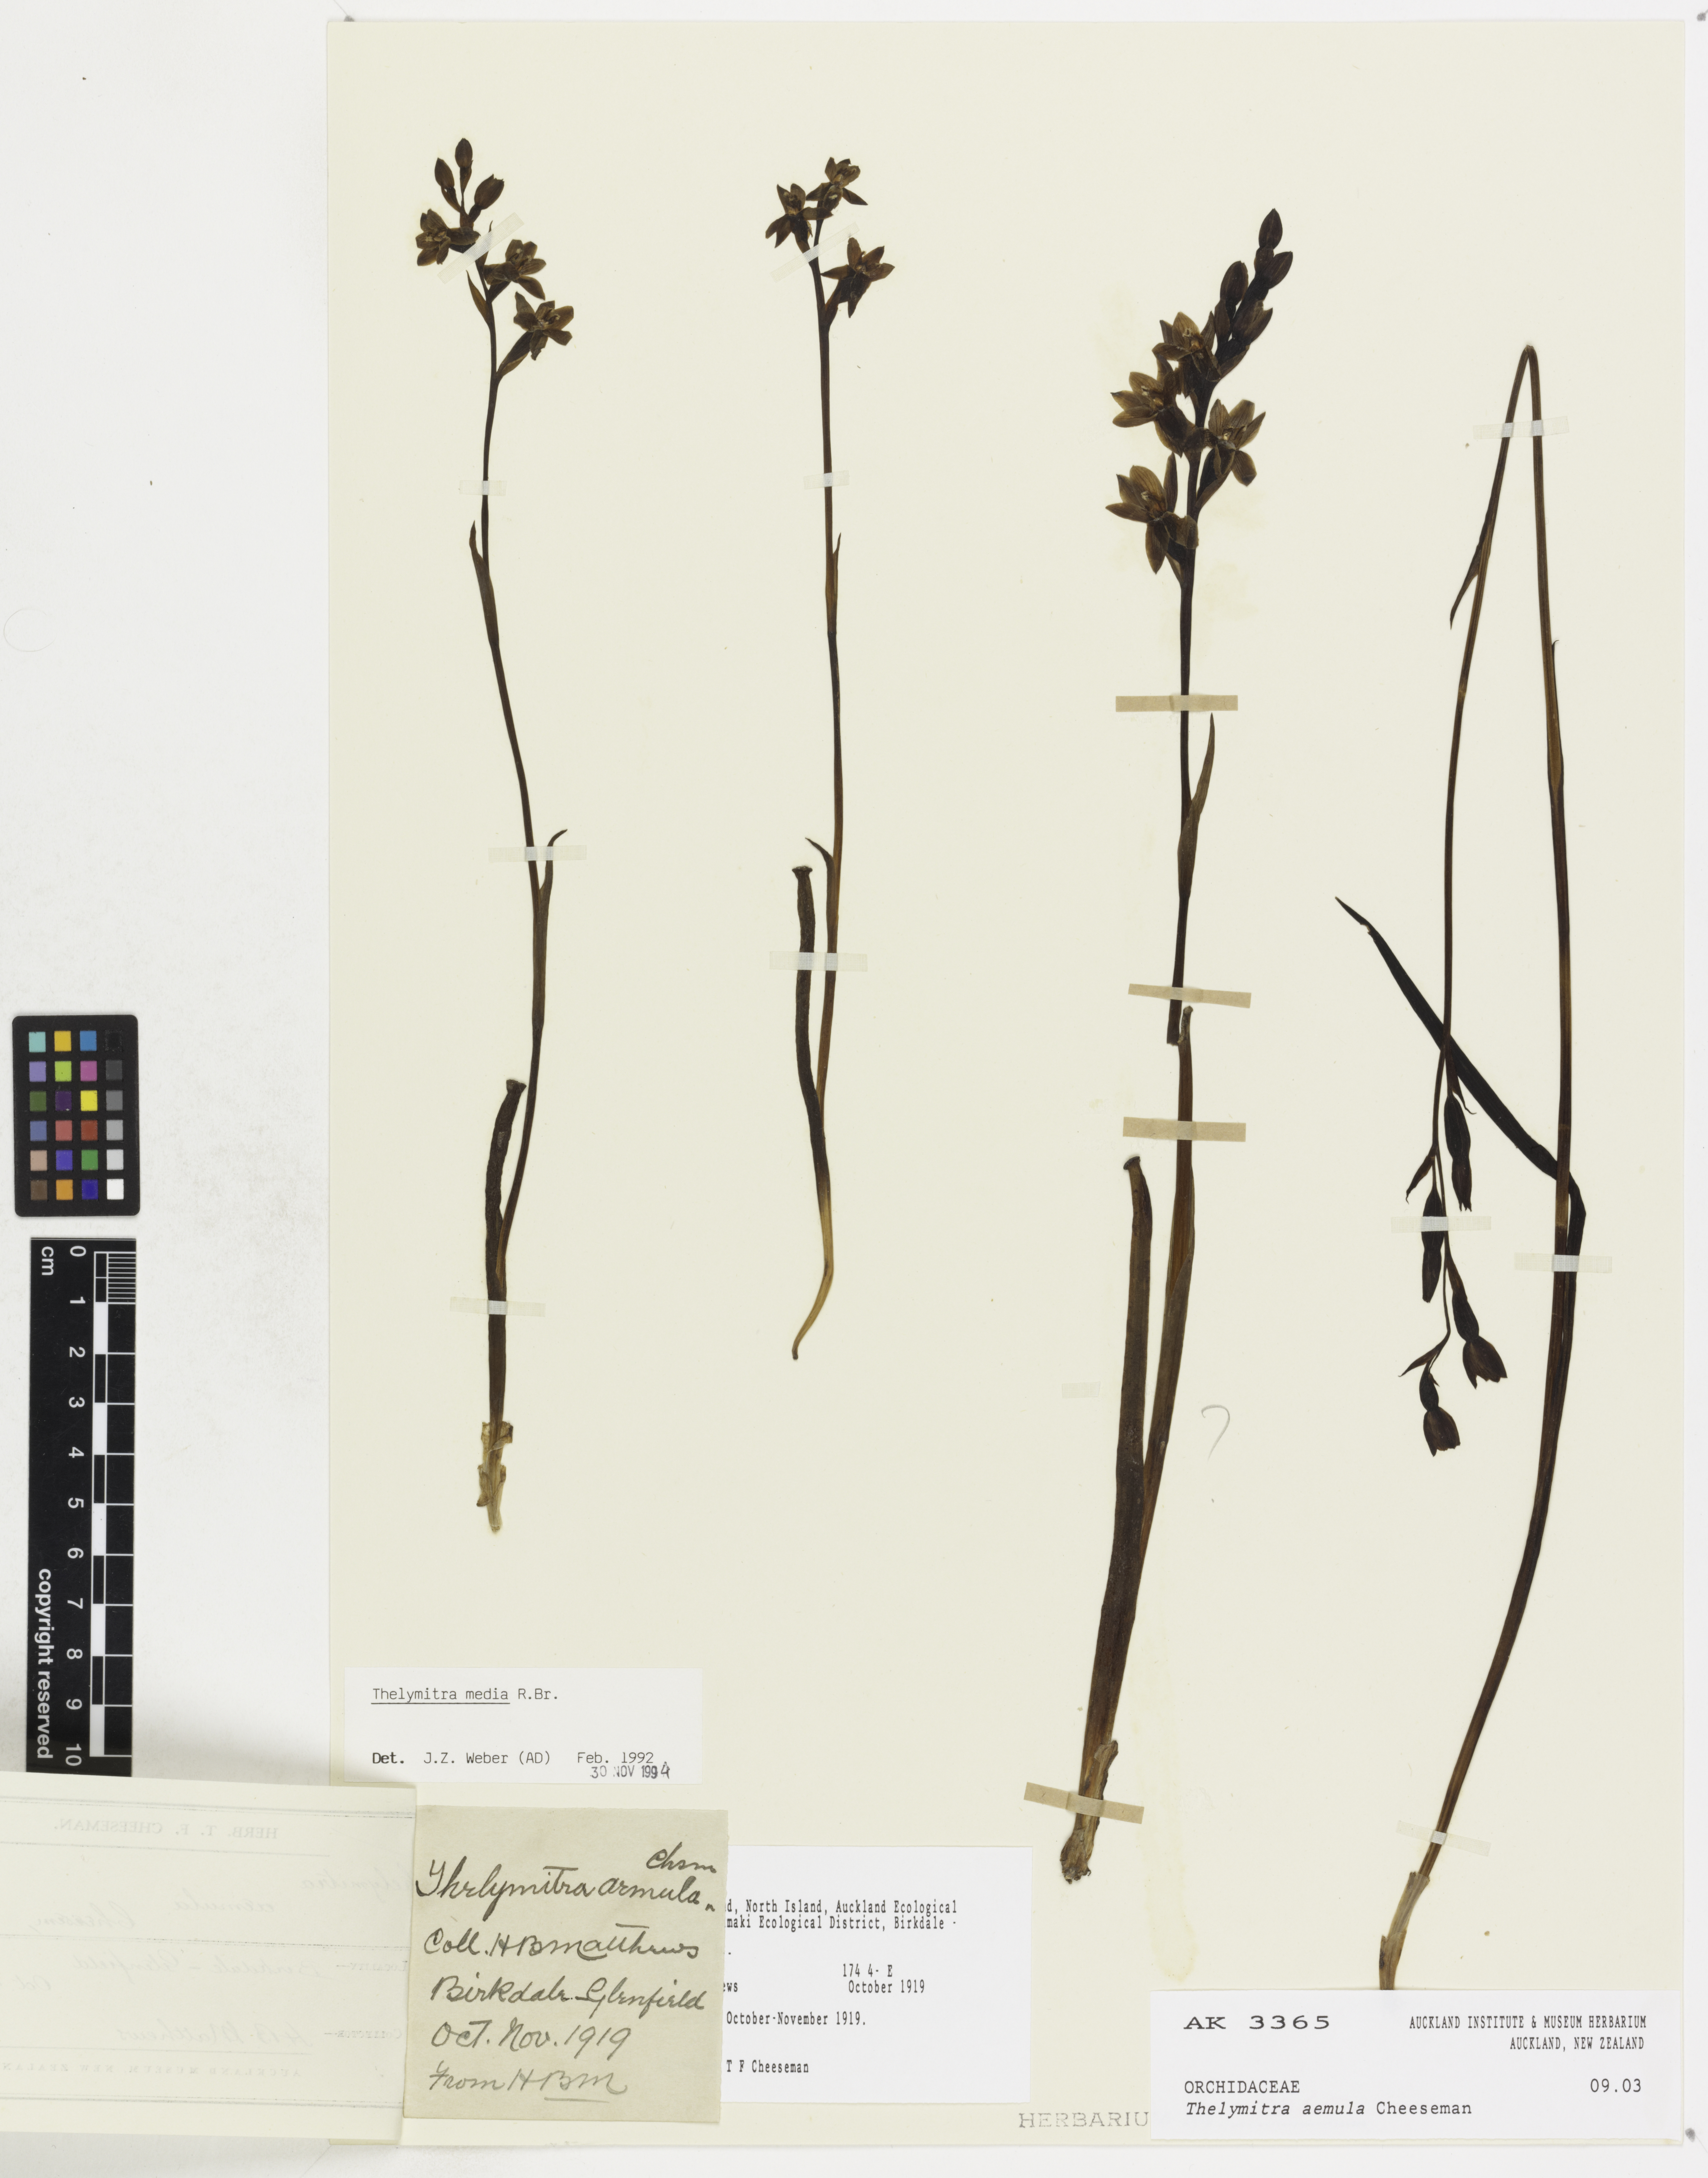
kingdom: Plantae
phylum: Tracheophyta
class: Liliopsida
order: Asparagales
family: Orchidaceae
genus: Thelymitra
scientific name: Thelymitra aemula
